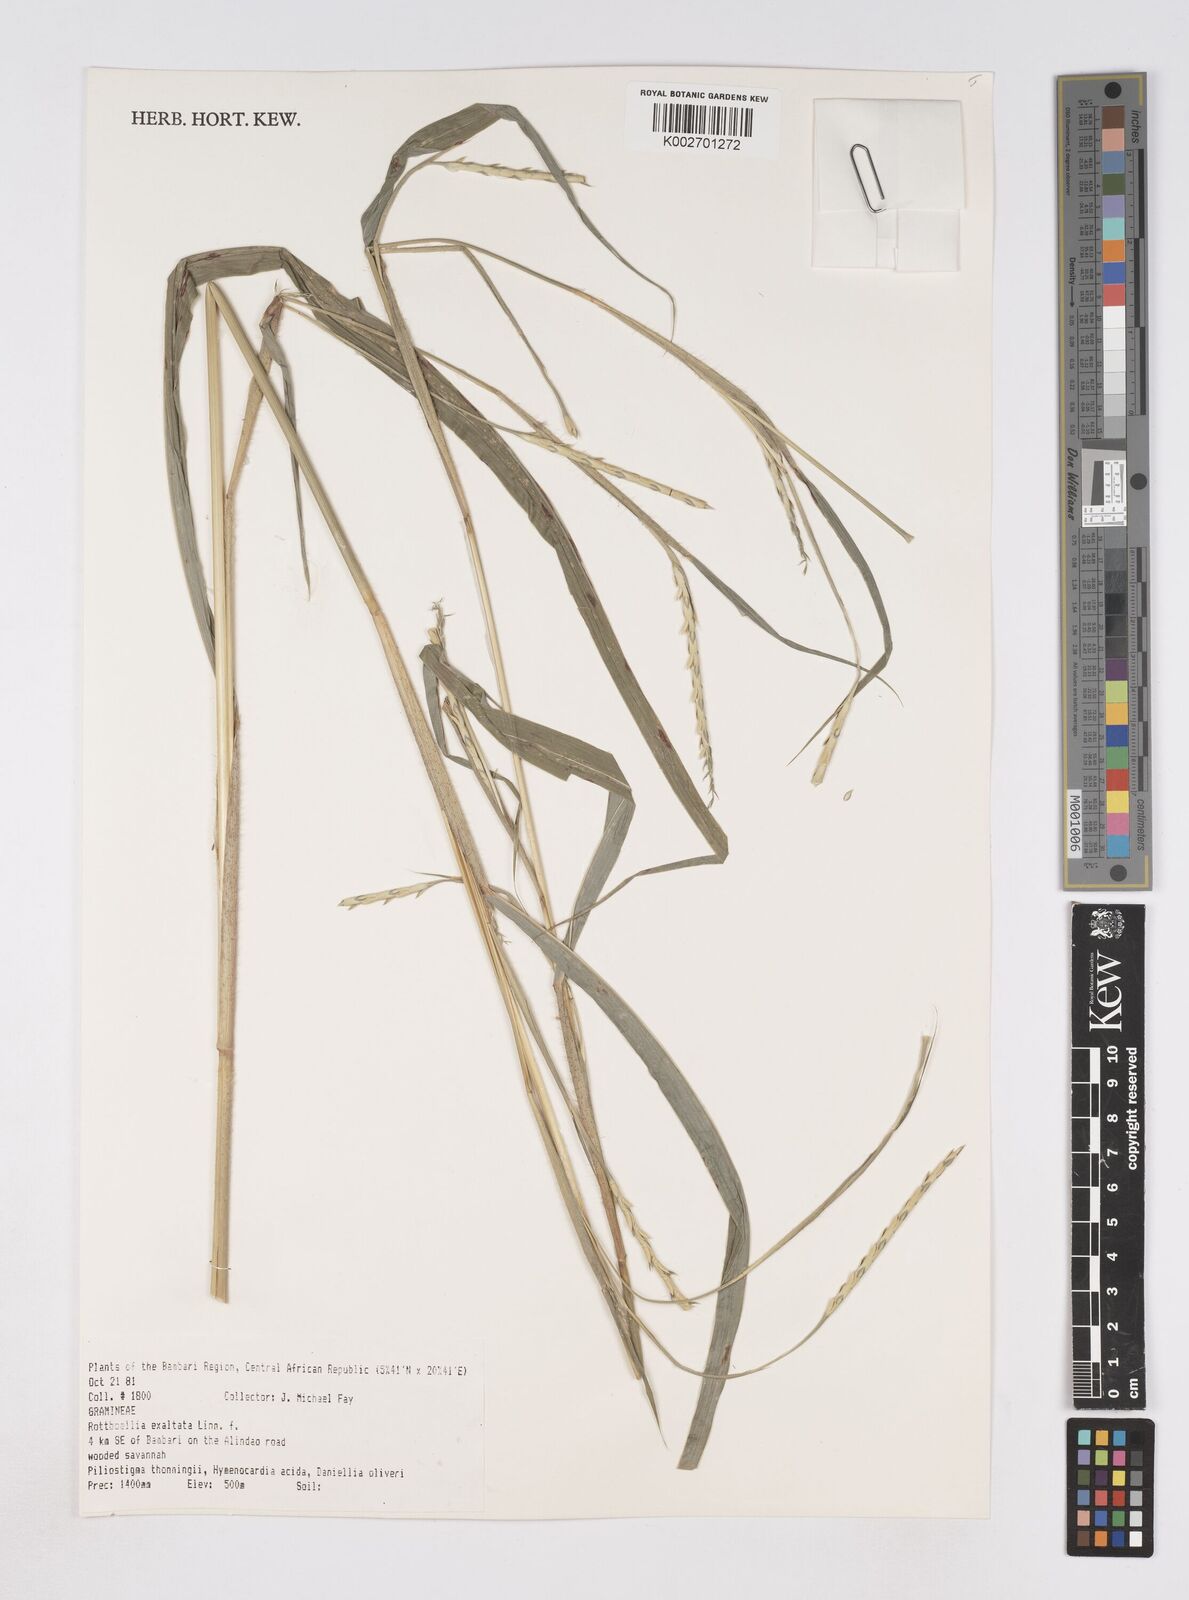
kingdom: Plantae
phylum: Tracheophyta
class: Liliopsida
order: Poales
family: Poaceae
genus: Rottboellia
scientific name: Rottboellia
